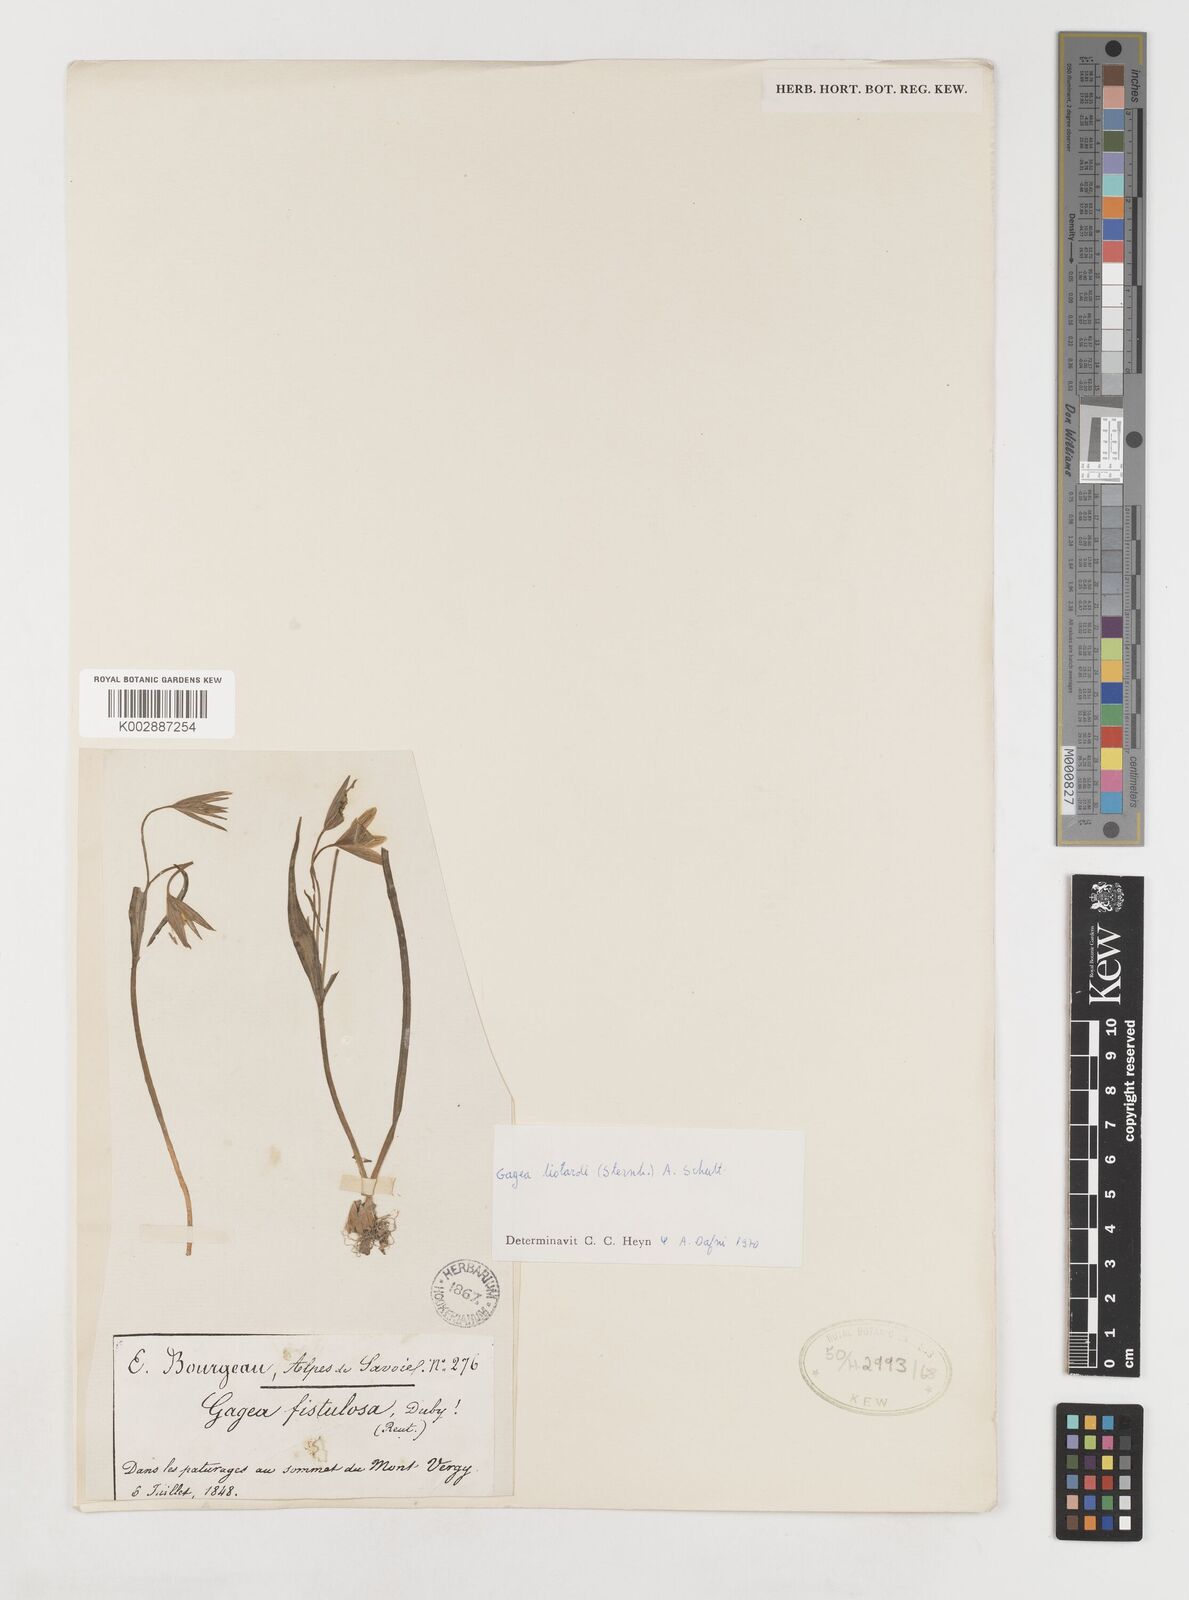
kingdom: Plantae
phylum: Tracheophyta
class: Liliopsida
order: Liliales
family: Liliaceae
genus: Gagea
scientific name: Gagea fragifera
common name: Lily
